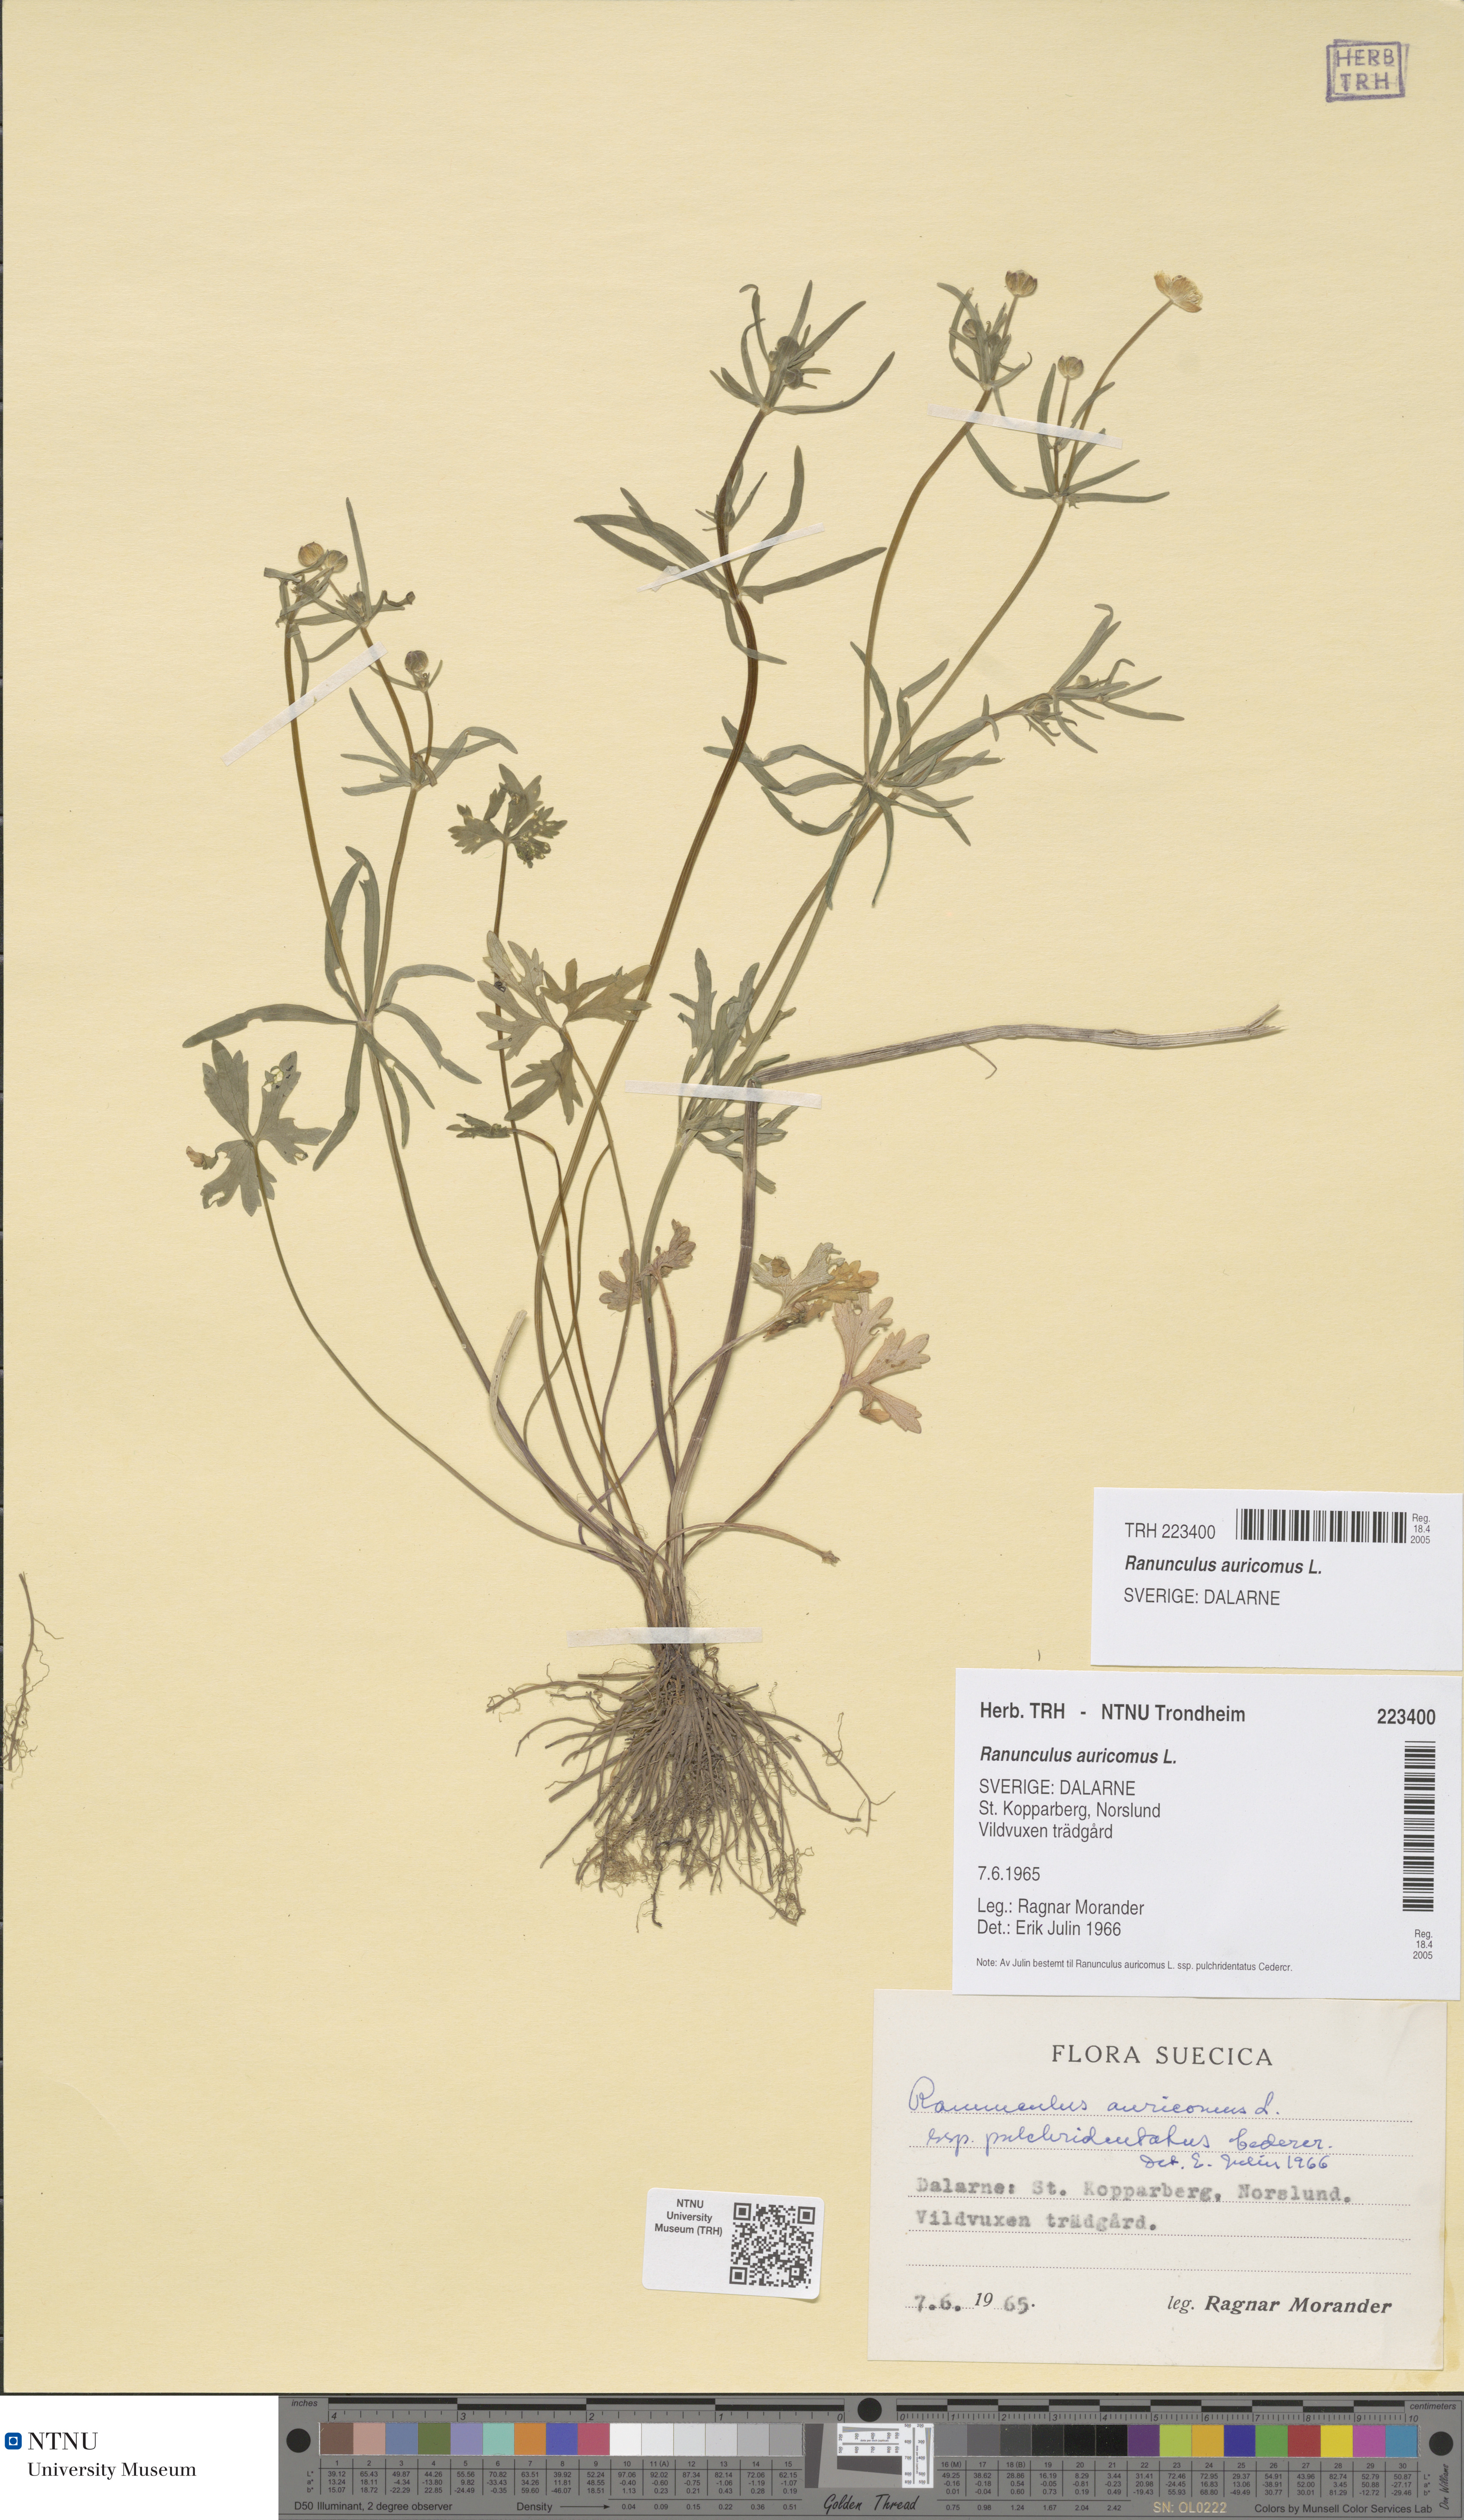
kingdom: Plantae
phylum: Tracheophyta
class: Magnoliopsida
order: Ranunculales
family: Ranunculaceae
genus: Ranunculus
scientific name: Ranunculus auricomus
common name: Goldilocks buttercup
